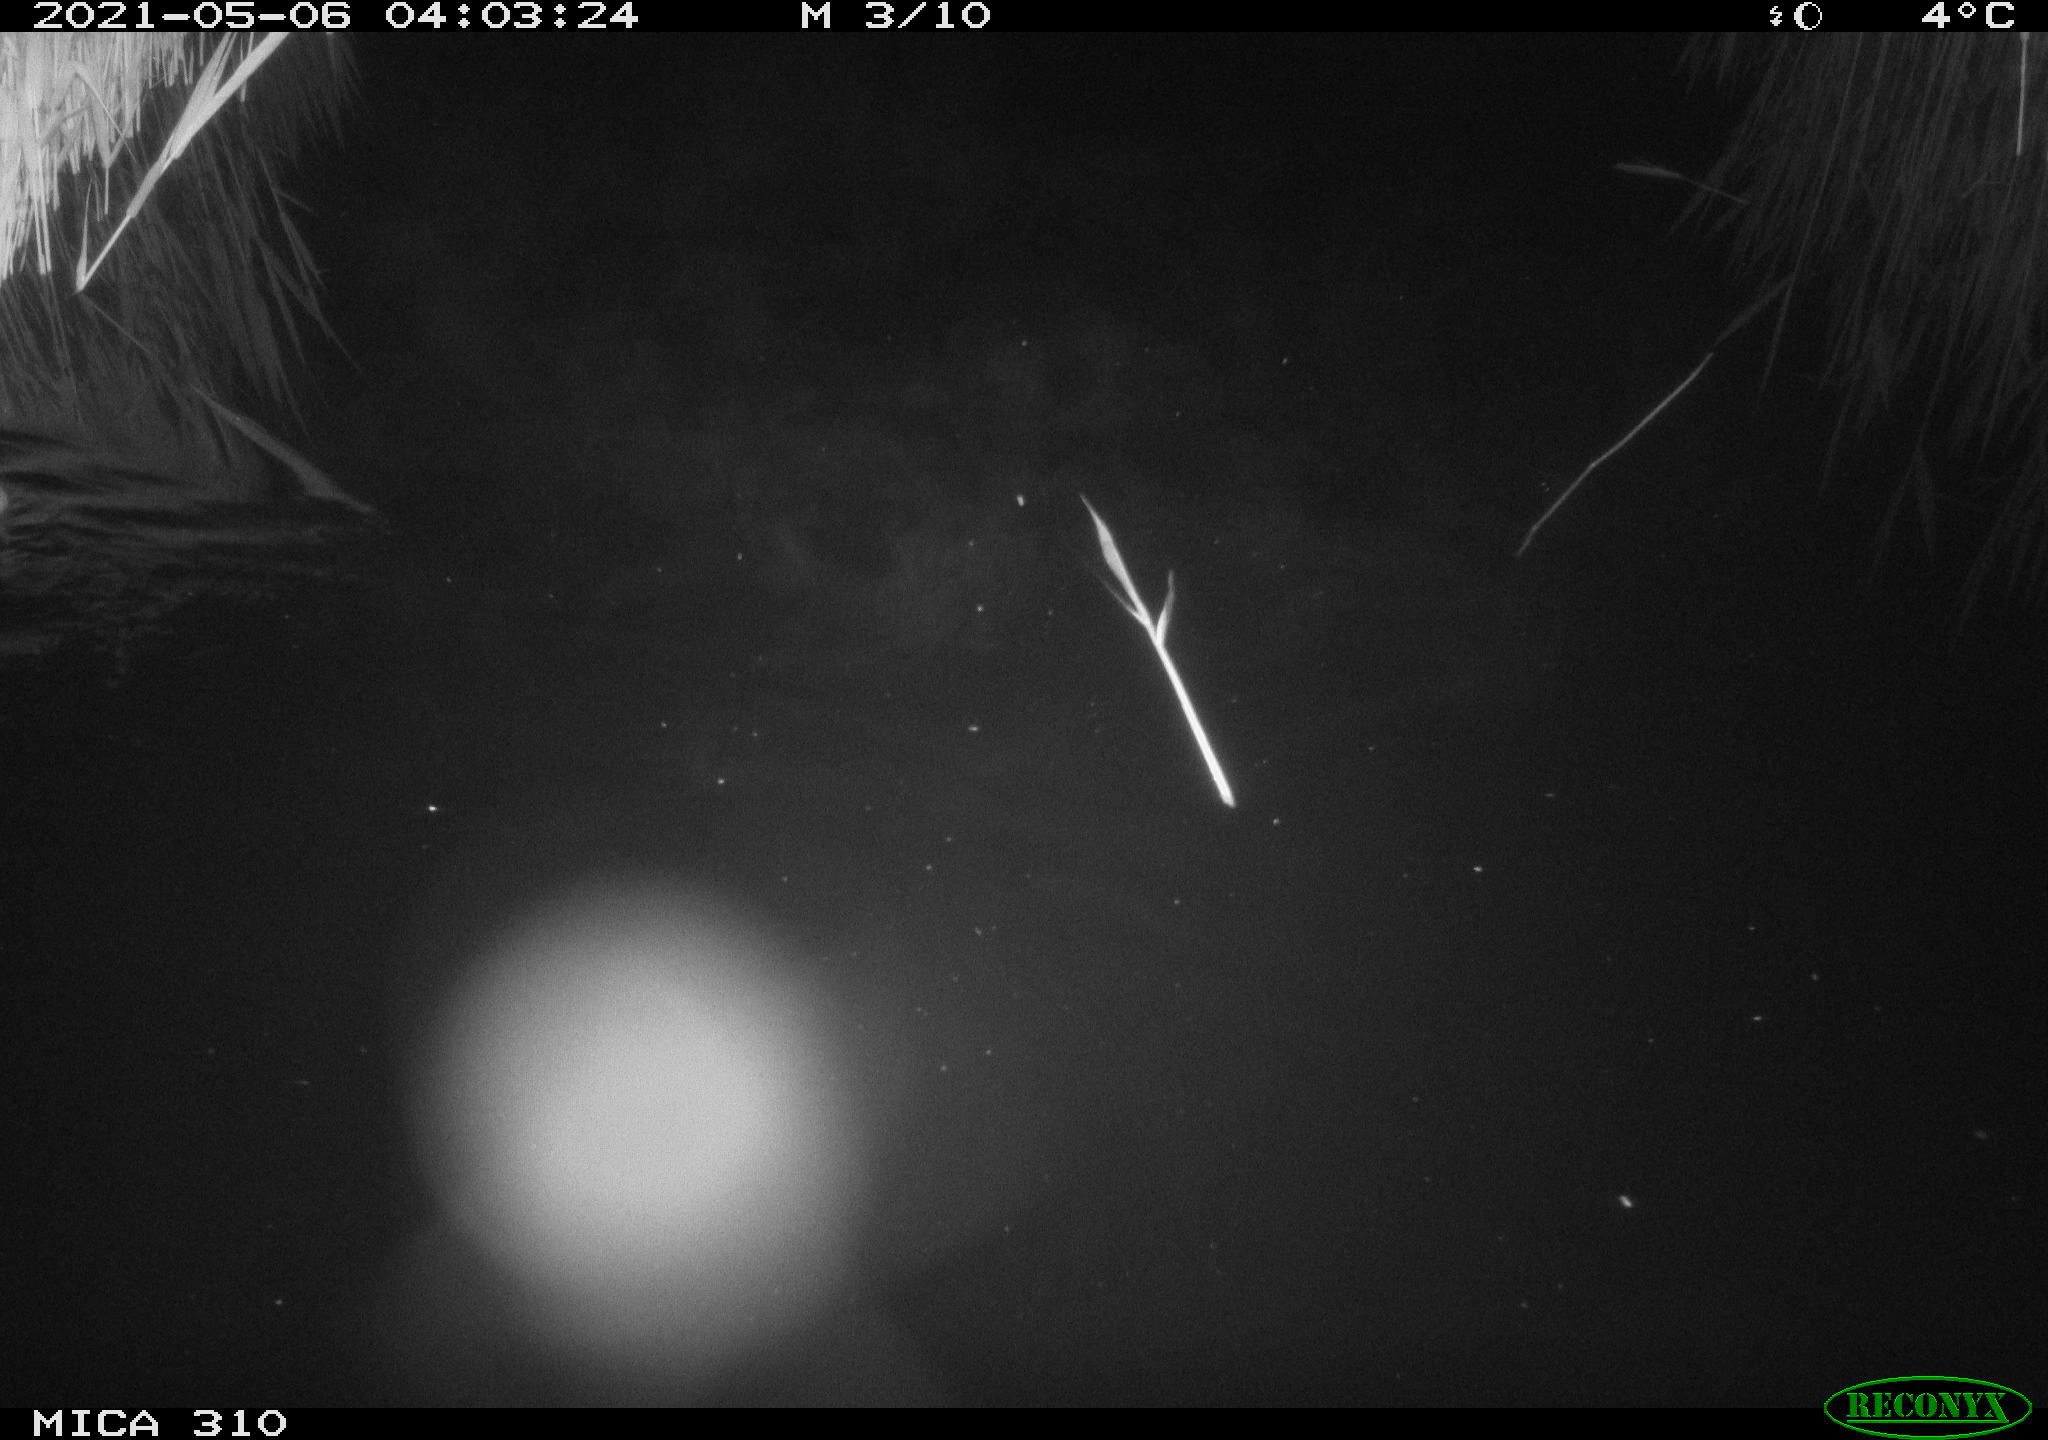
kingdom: Animalia
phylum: Chordata
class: Mammalia
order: Rodentia
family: Muridae
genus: Rattus
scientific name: Rattus norvegicus
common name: Brown rat
